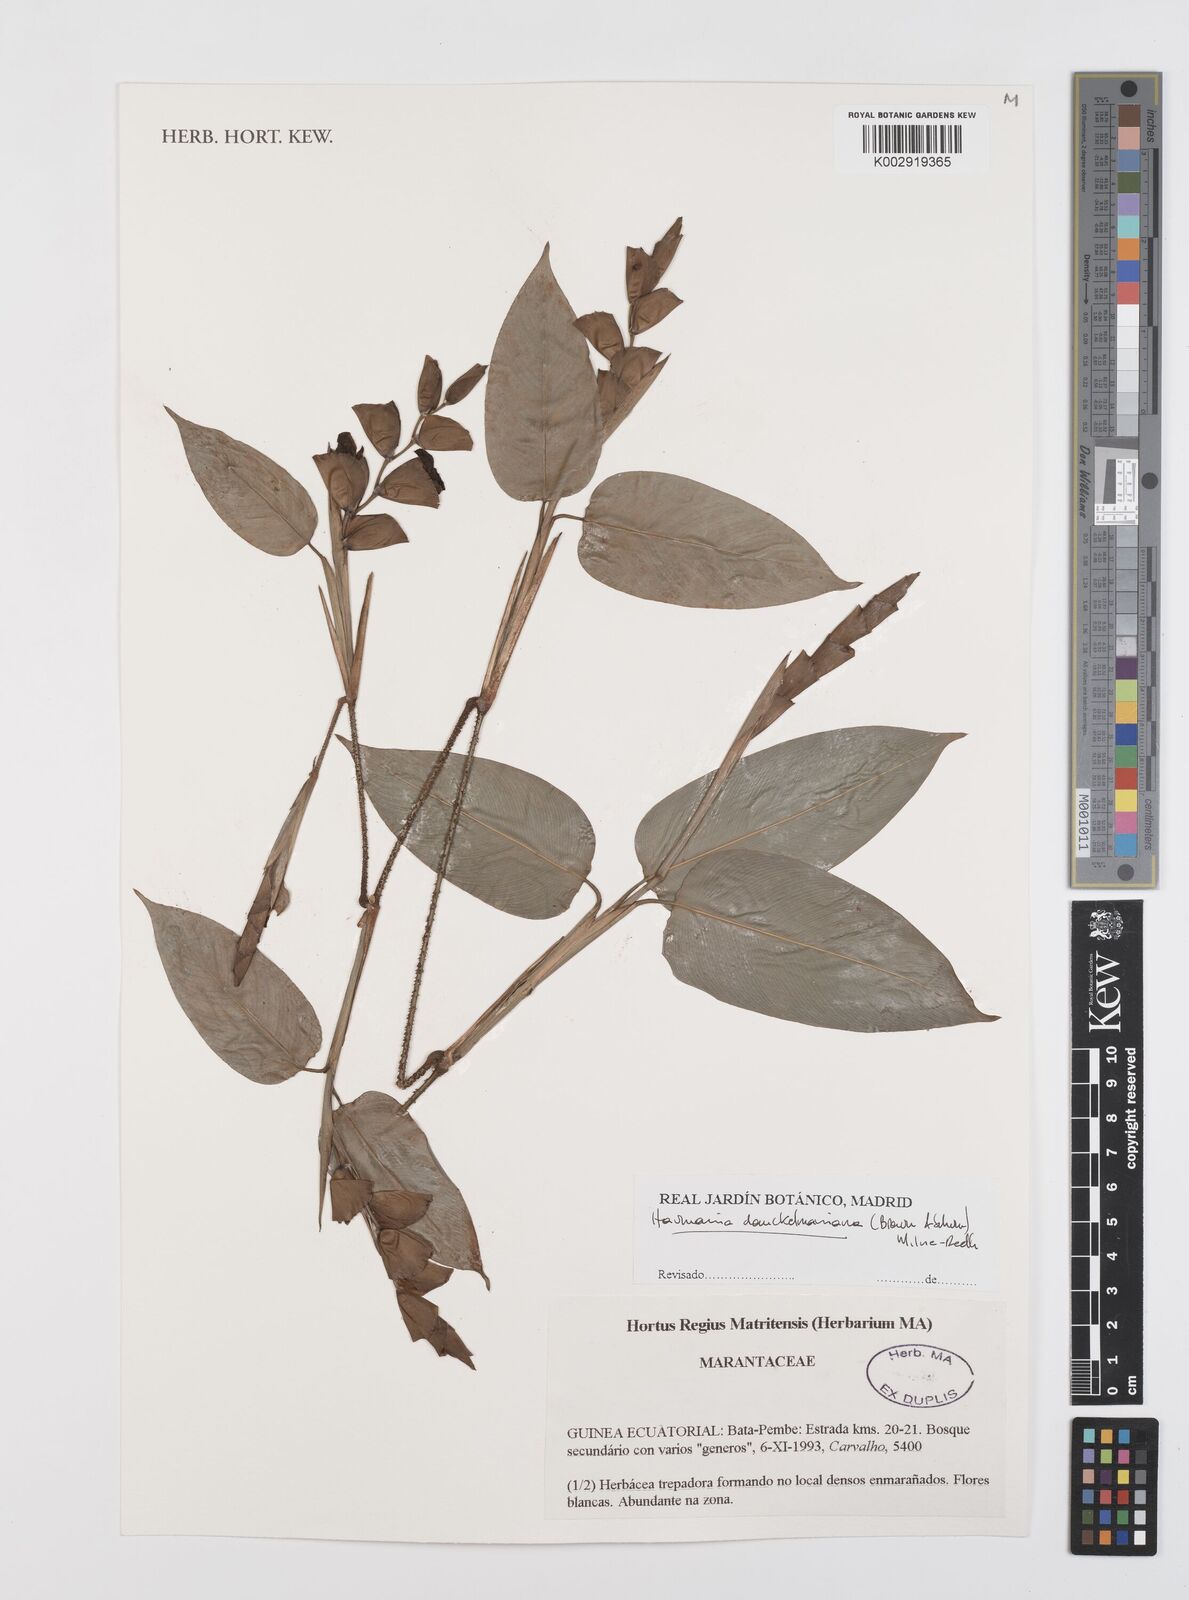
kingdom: Plantae
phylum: Tracheophyta
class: Liliopsida
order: Zingiberales
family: Marantaceae
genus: Haumania
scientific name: Haumania danckelmaniana
